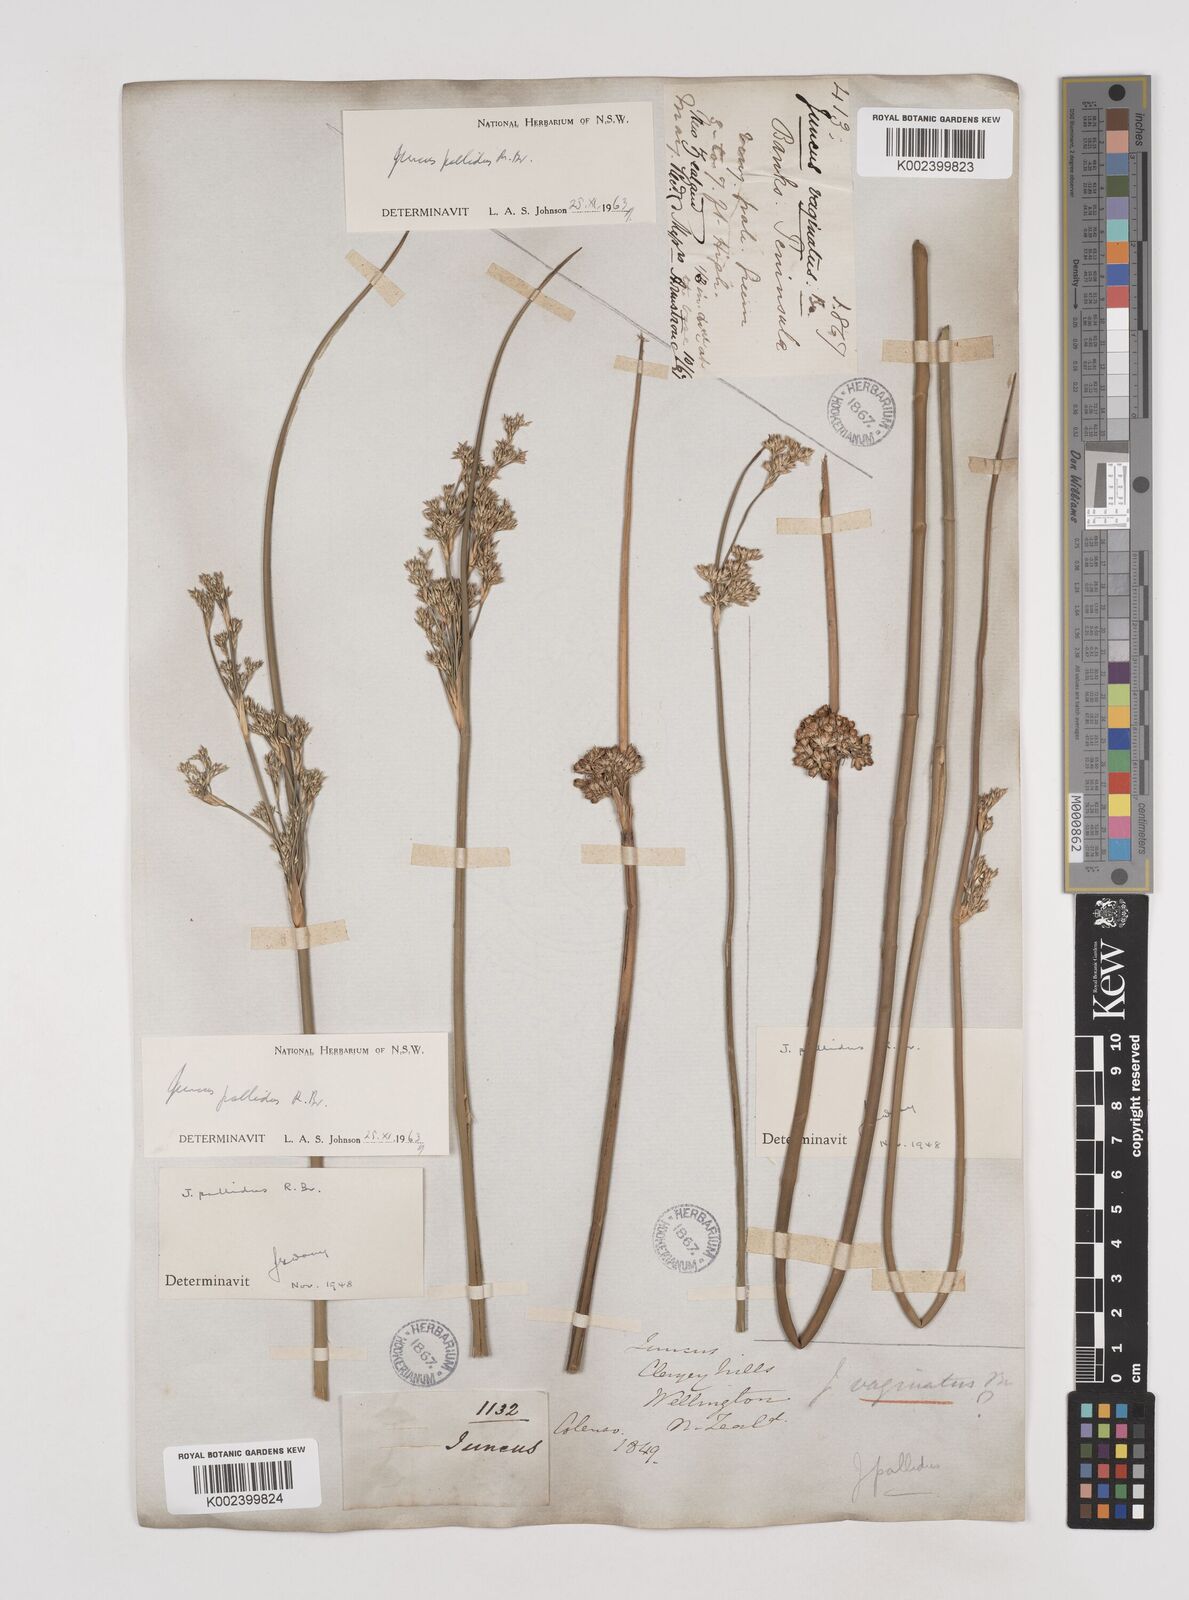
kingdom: Plantae
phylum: Tracheophyta
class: Liliopsida
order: Poales
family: Juncaceae
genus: Juncus
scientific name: Juncus pallidus
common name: Great soft-rush
